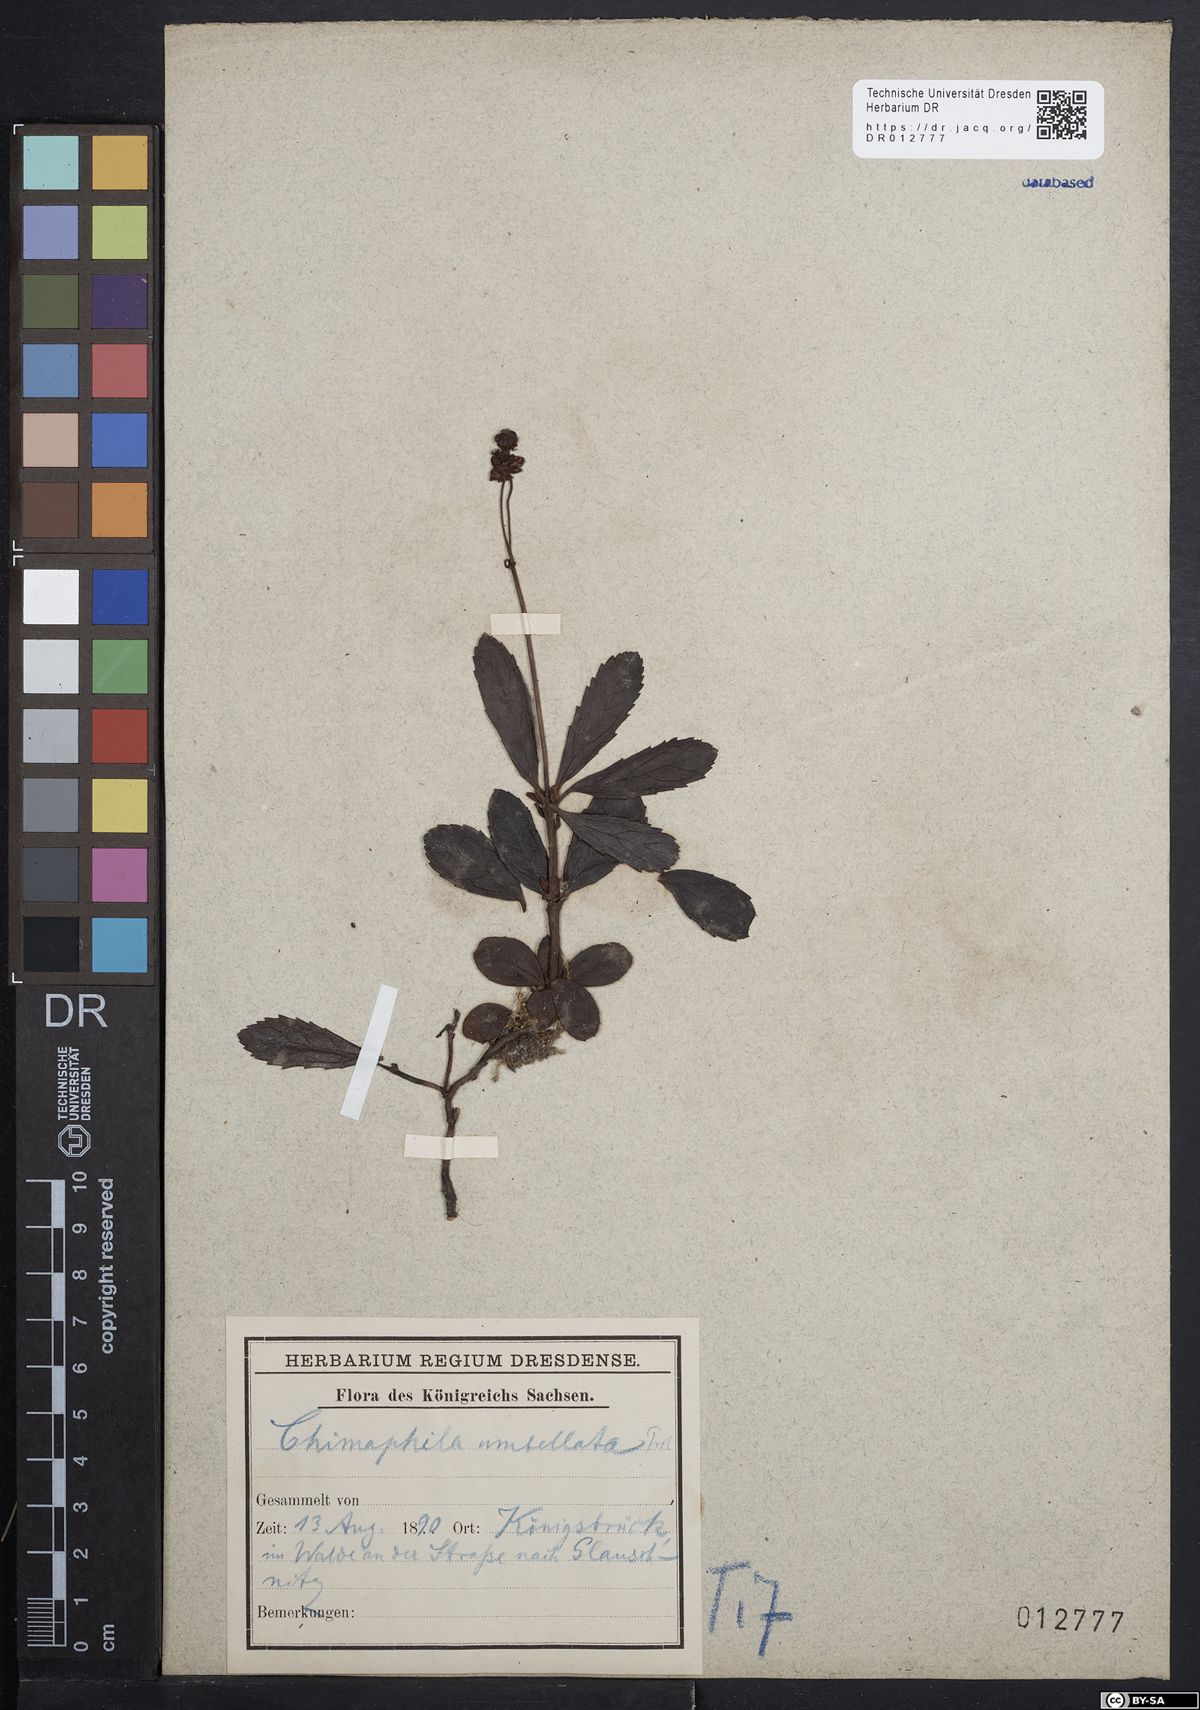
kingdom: Plantae
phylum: Tracheophyta
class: Magnoliopsida
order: Ericales
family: Ericaceae
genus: Chimaphila
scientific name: Chimaphila umbellata
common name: Pipsissewa
